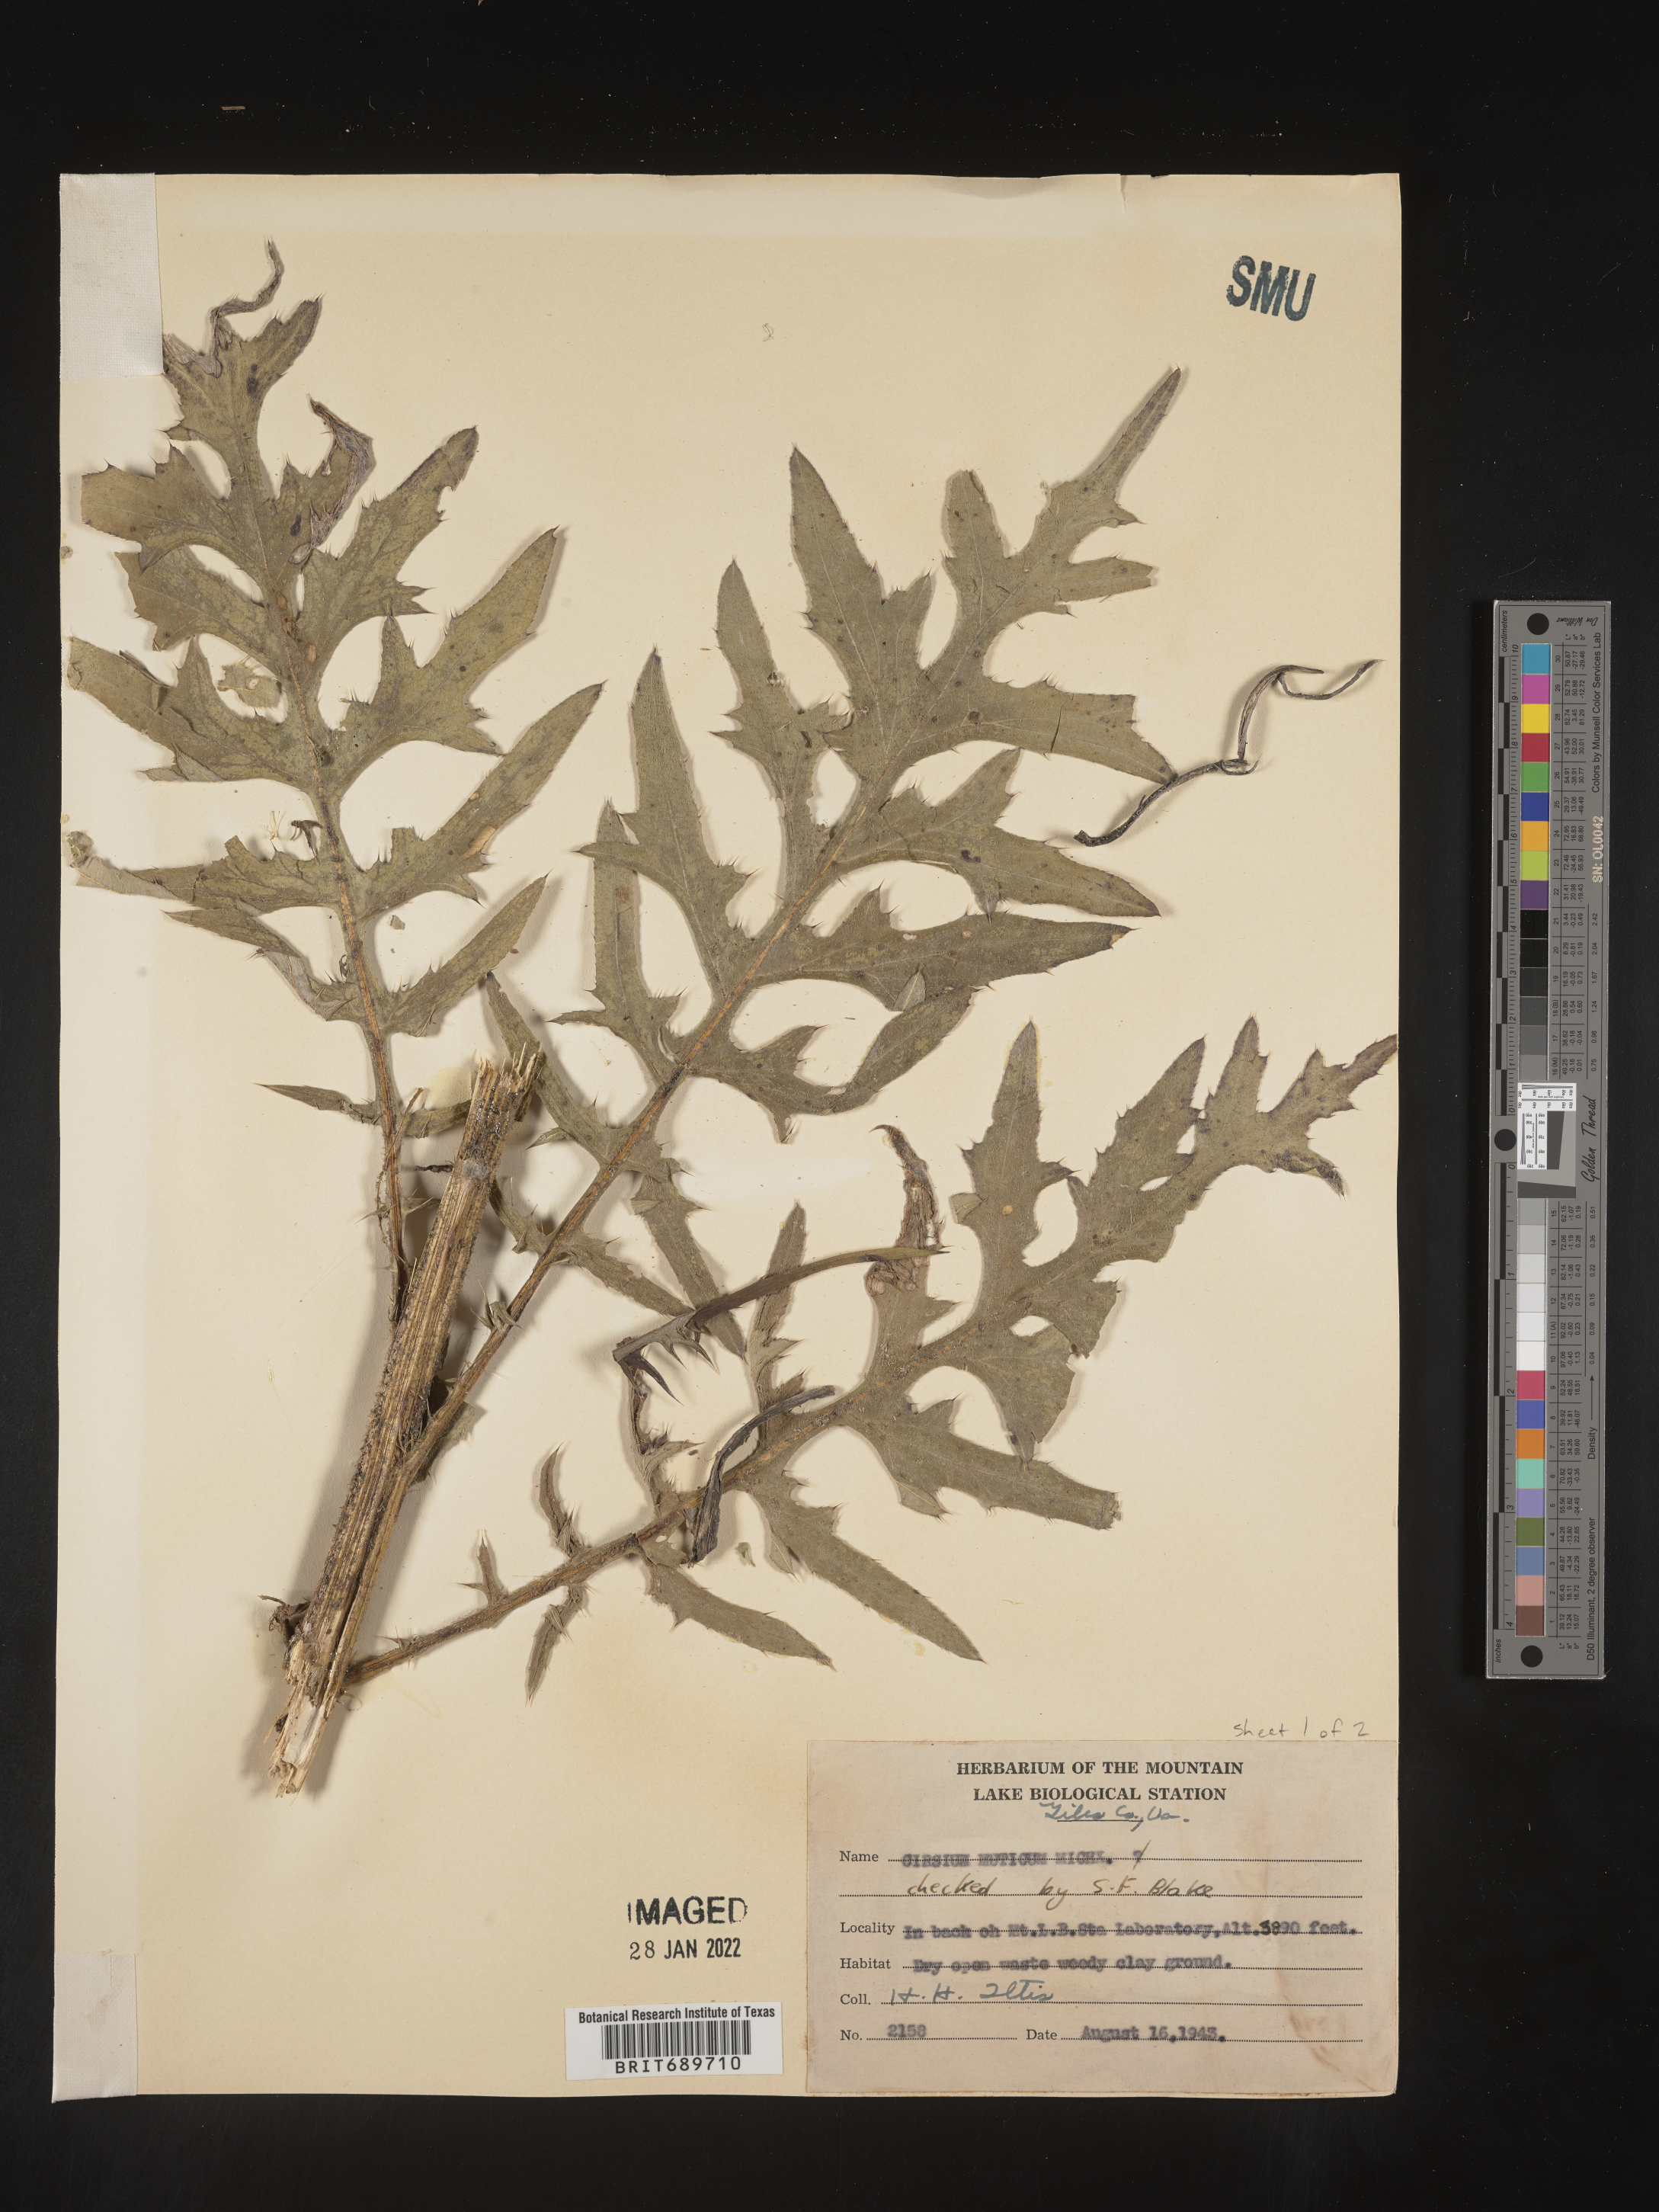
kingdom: Plantae
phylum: Tracheophyta
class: Magnoliopsida
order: Asterales
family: Asteraceae
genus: Cirsium
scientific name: Cirsium muticum
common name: Dunce-nettle
